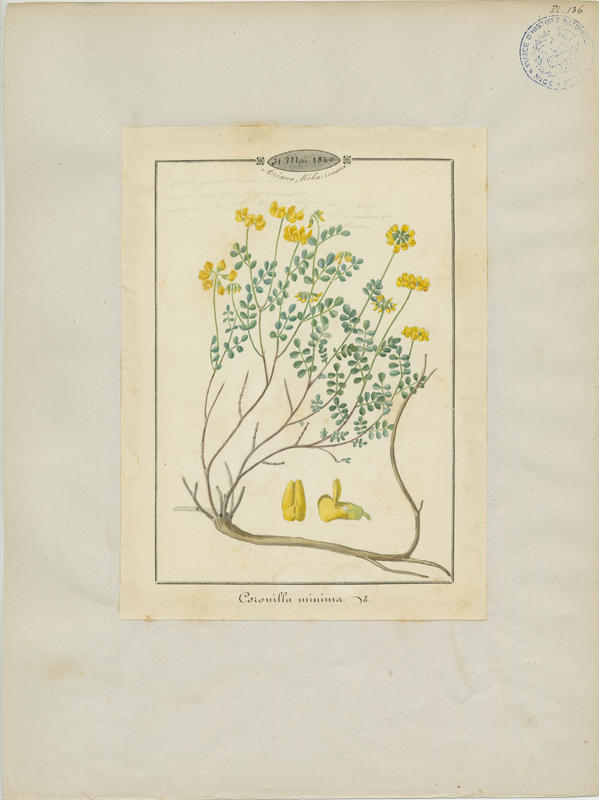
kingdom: Plantae
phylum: Tracheophyta
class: Magnoliopsida
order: Fabales
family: Fabaceae
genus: Coronilla
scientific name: Coronilla minima
